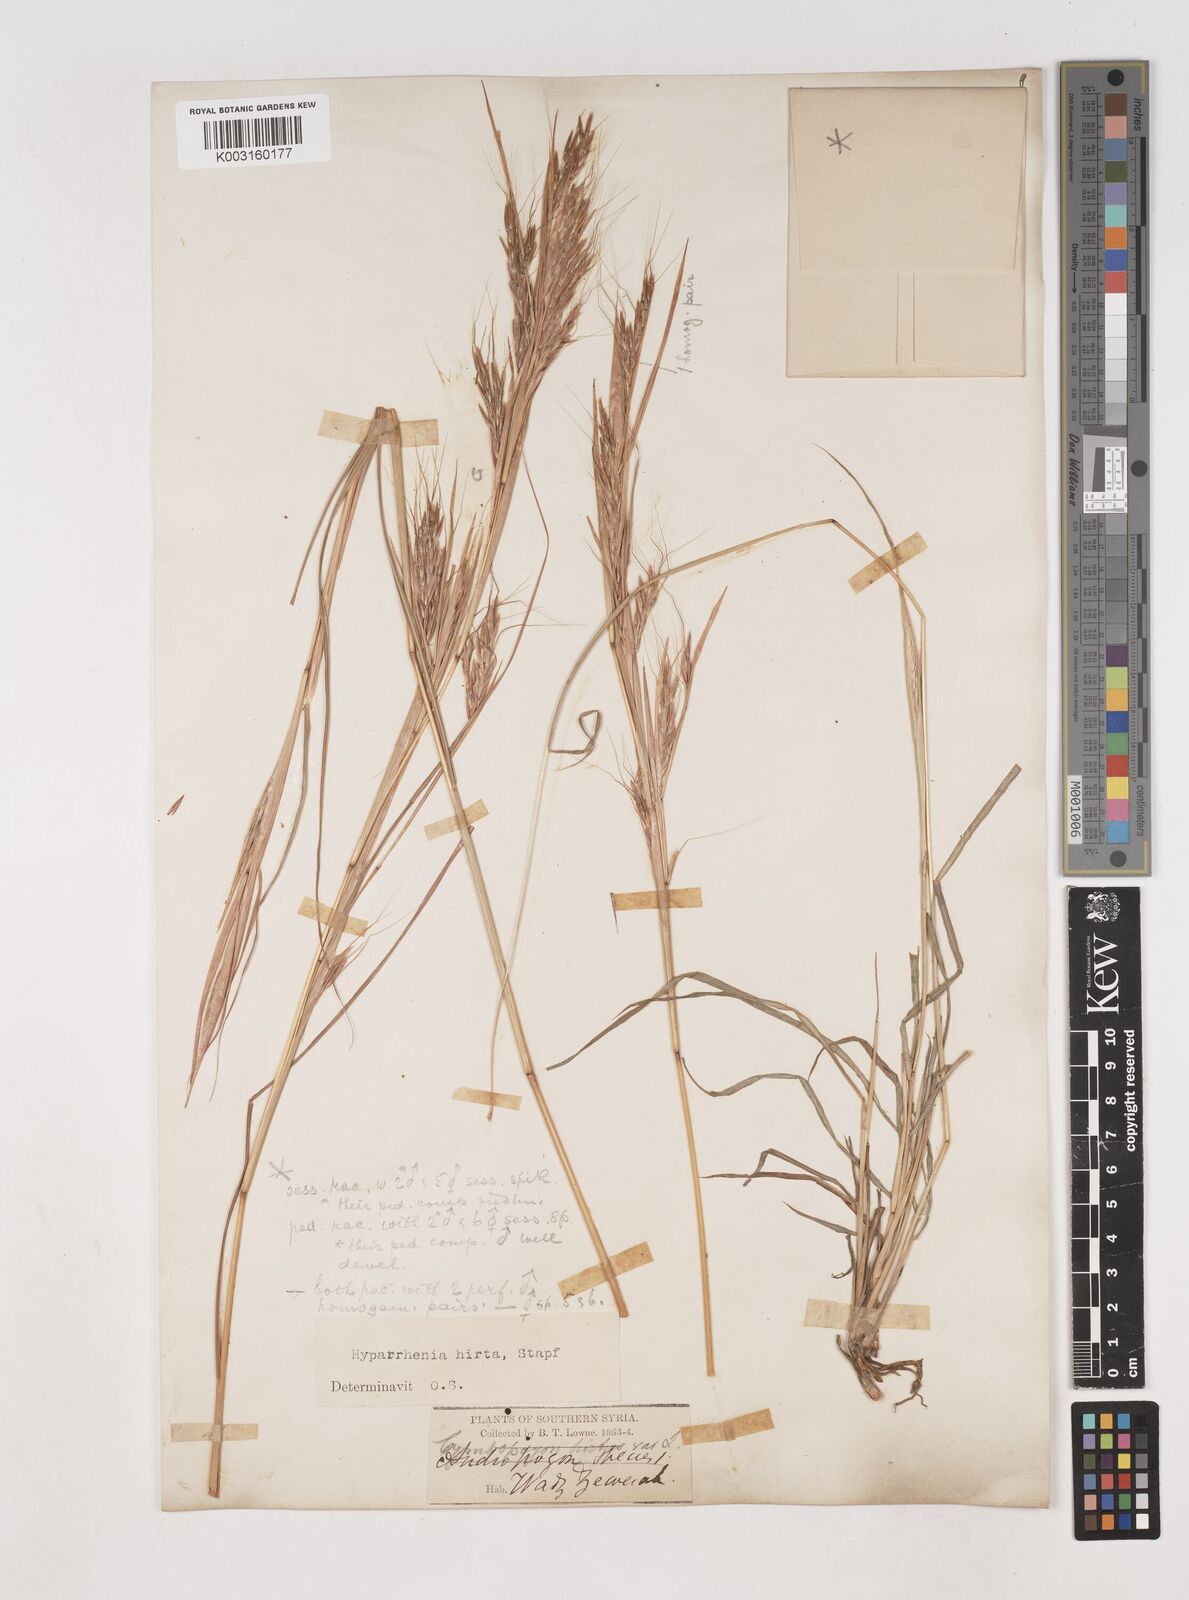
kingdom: Plantae
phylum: Tracheophyta
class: Liliopsida
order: Poales
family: Poaceae
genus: Hyparrhenia
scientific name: Hyparrhenia hirta
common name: Thatching grass
